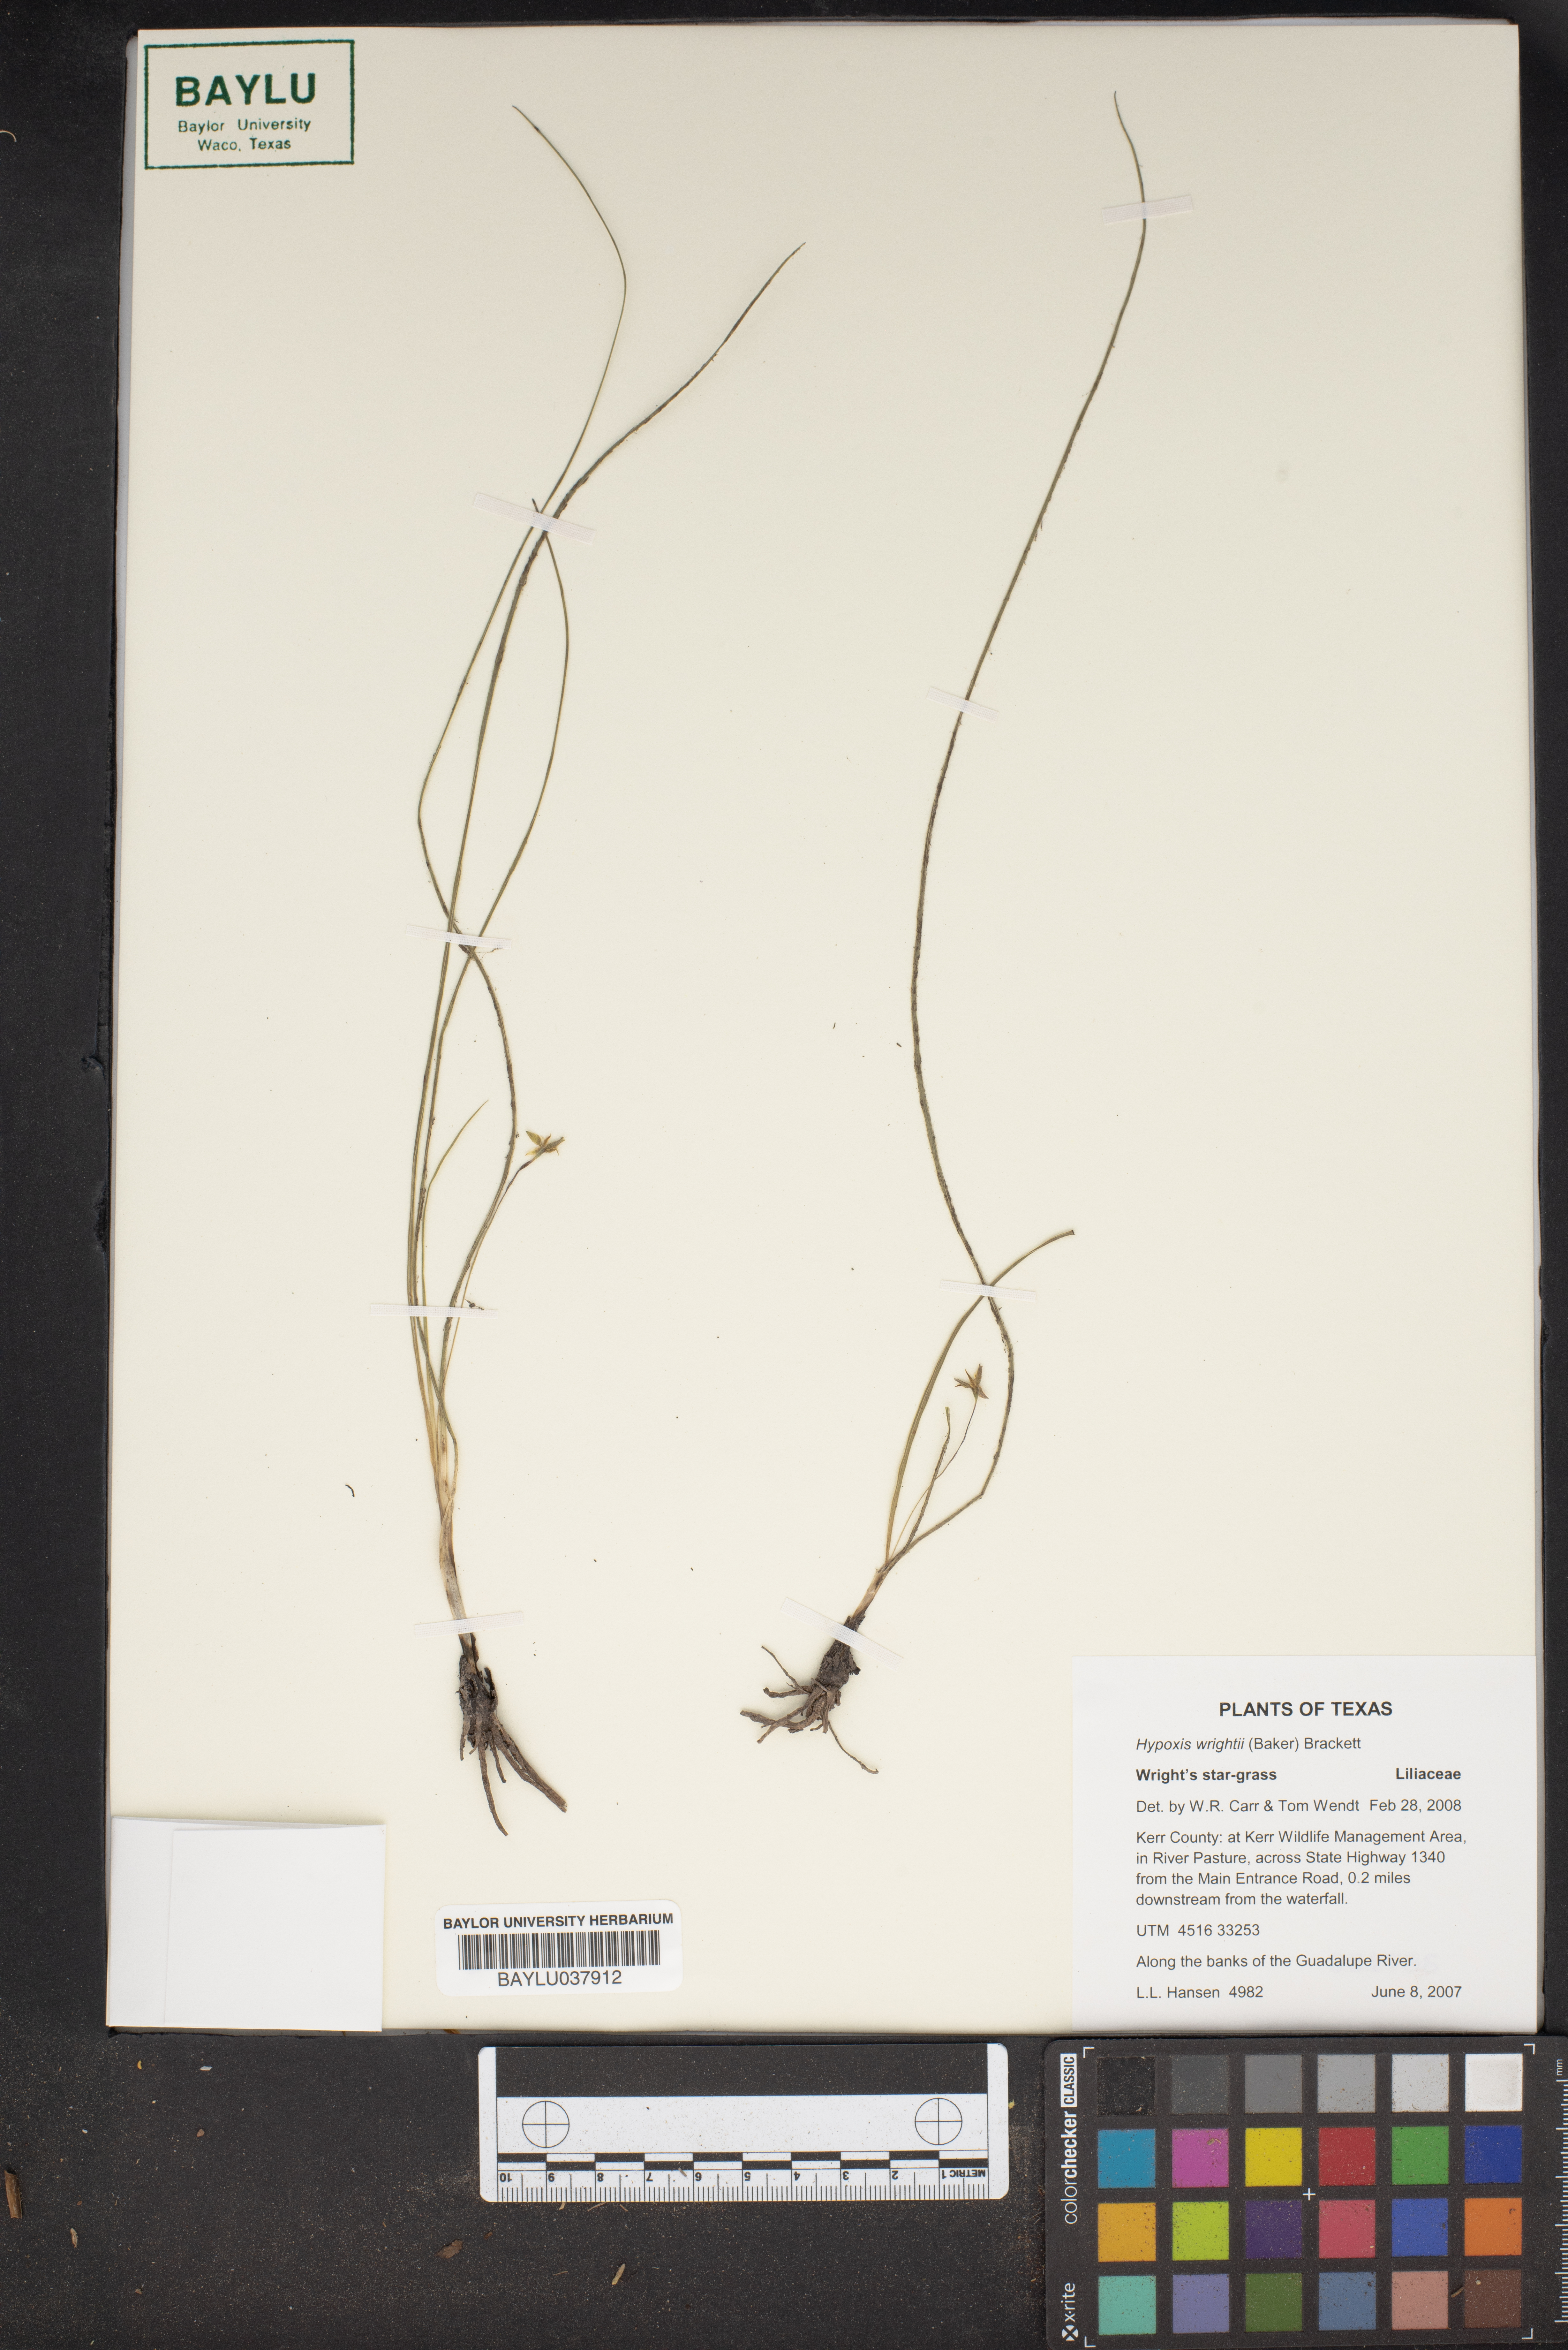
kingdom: Plantae
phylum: Tracheophyta
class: Liliopsida
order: Asparagales
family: Hypoxidaceae
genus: Hypoxis
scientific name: Hypoxis wrightii
